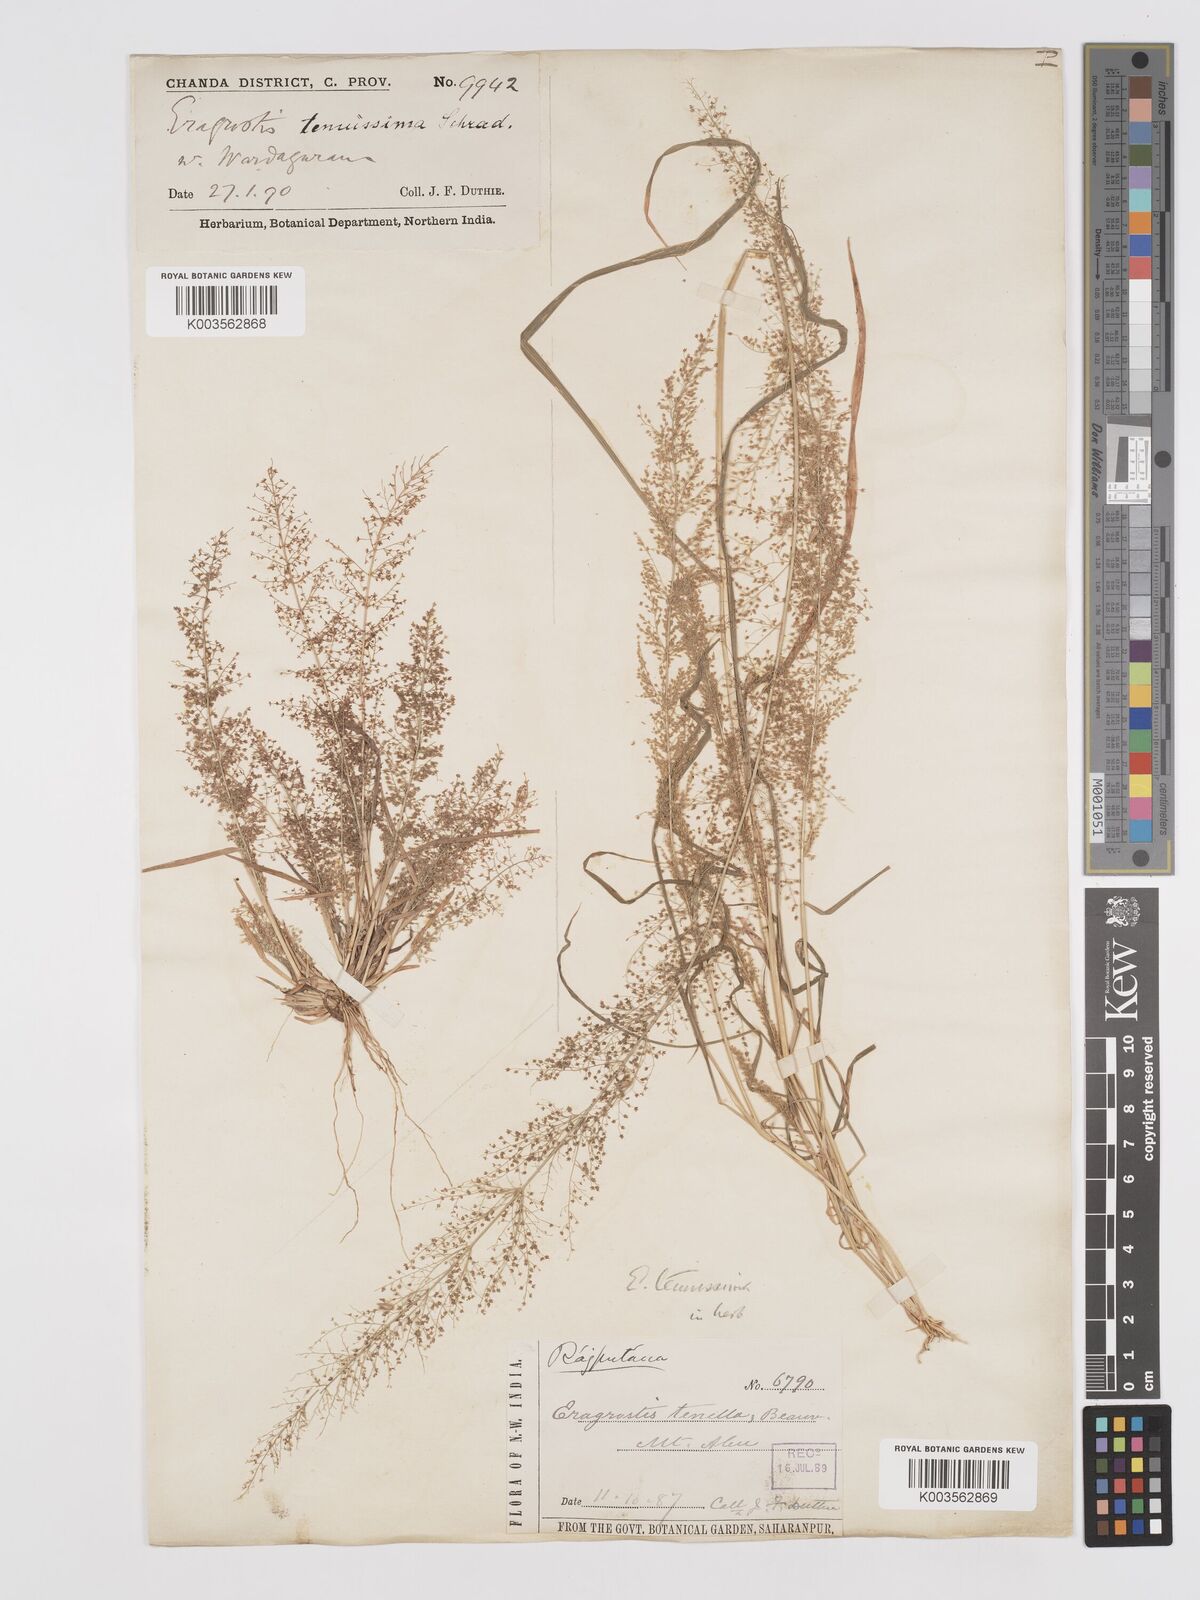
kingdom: Plantae
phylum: Tracheophyta
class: Liliopsida
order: Poales
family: Poaceae
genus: Eragrostis
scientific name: Eragrostis japonica
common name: Pond lovegrass
